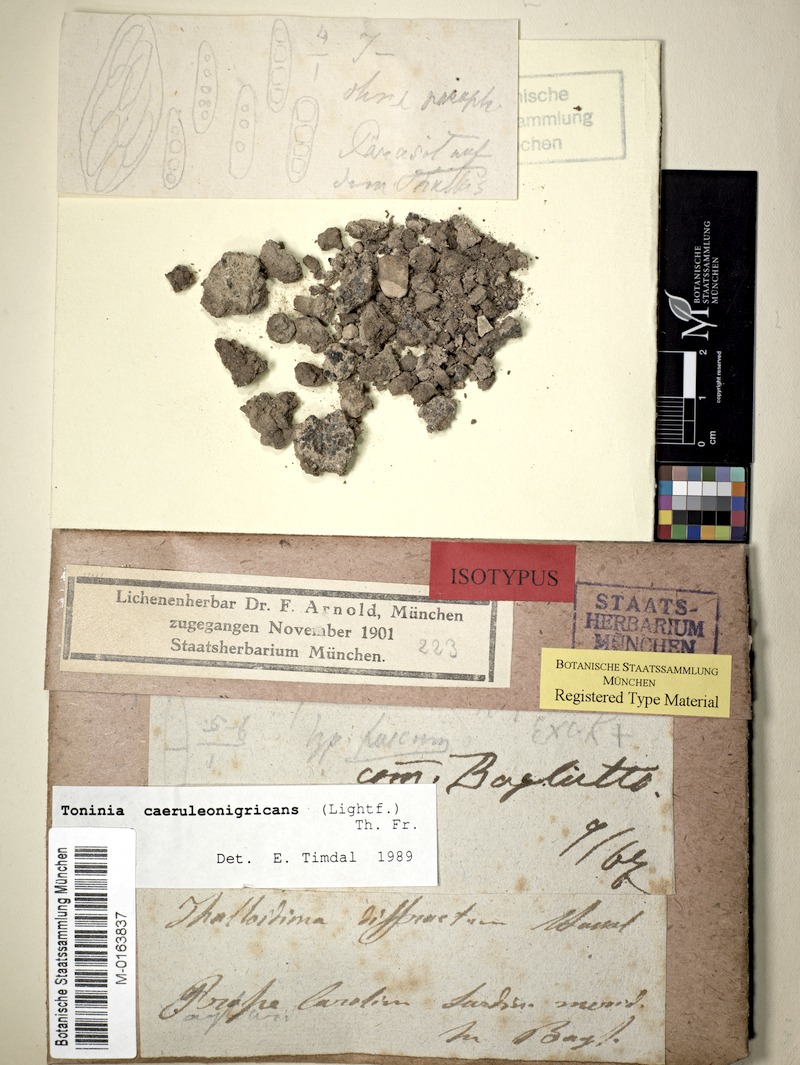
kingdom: Fungi
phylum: Ascomycota
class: Lecanoromycetes
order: Lecanorales
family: Ramalinaceae
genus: Thalloidima
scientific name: Thalloidima sedifolium
